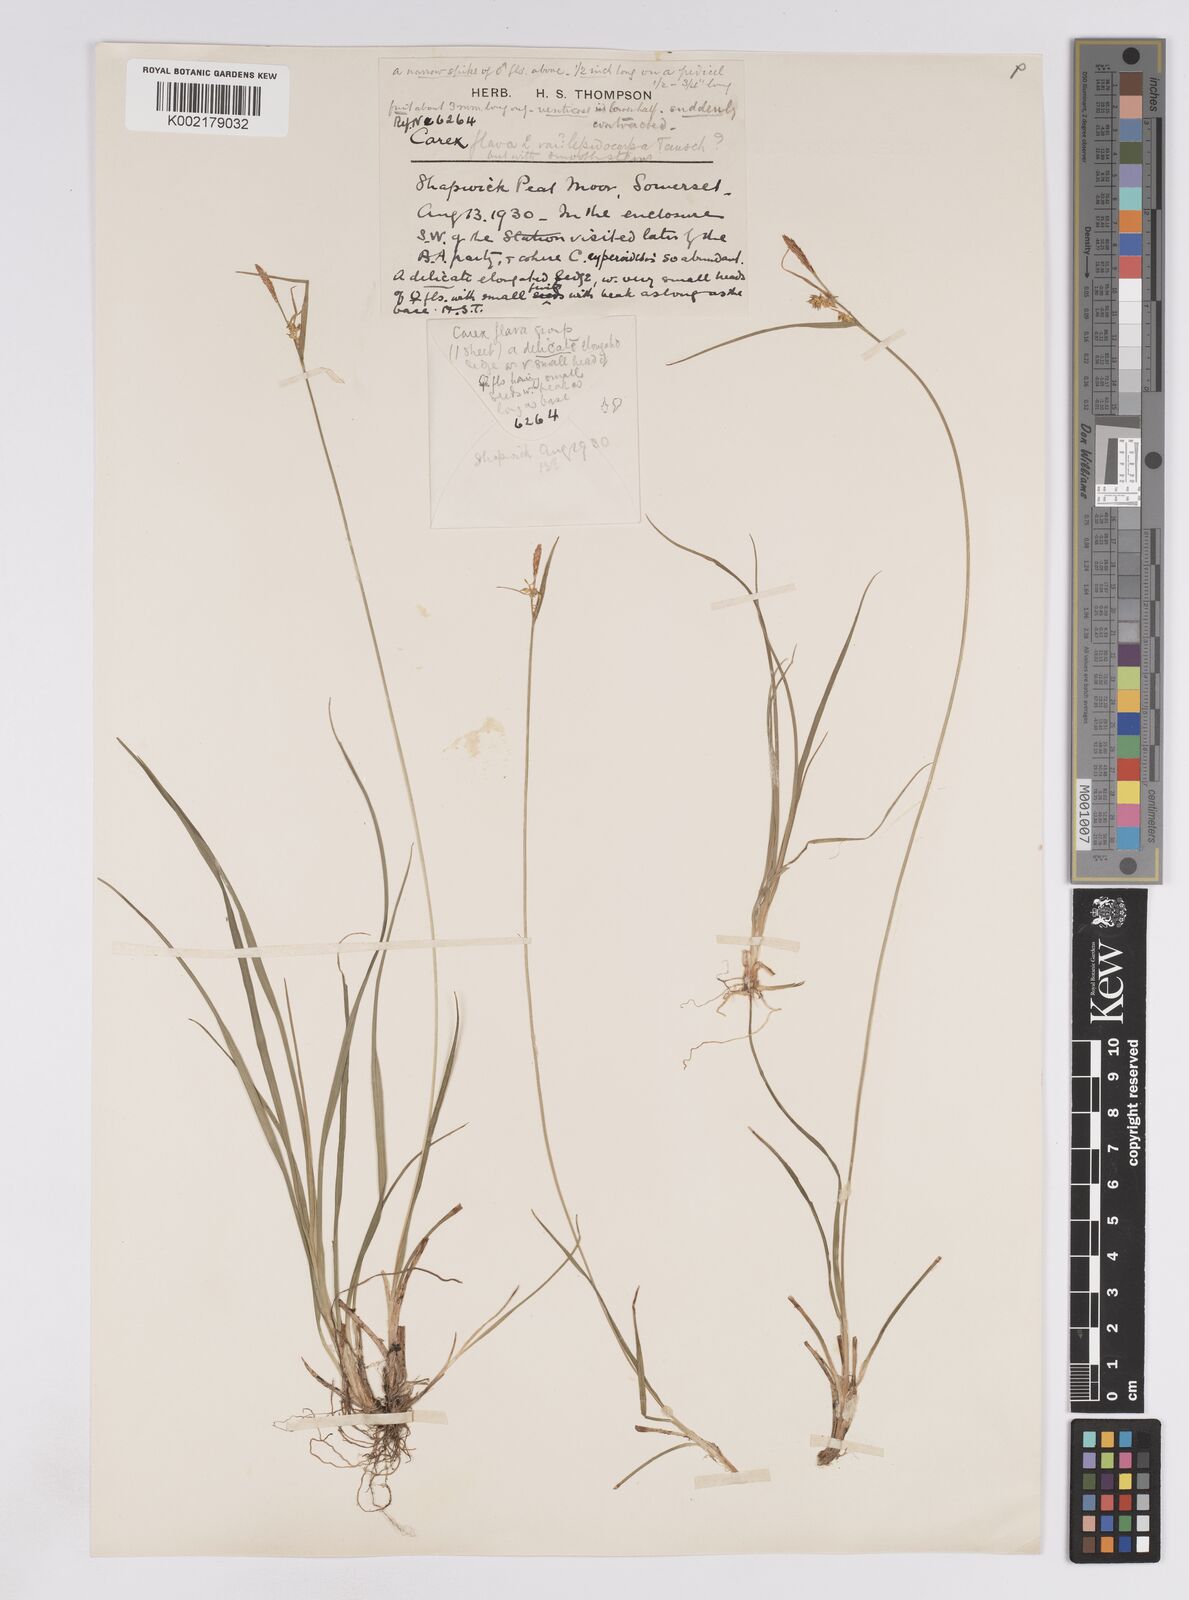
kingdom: Plantae
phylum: Tracheophyta
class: Liliopsida
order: Poales
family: Cyperaceae
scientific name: Cyperaceae
